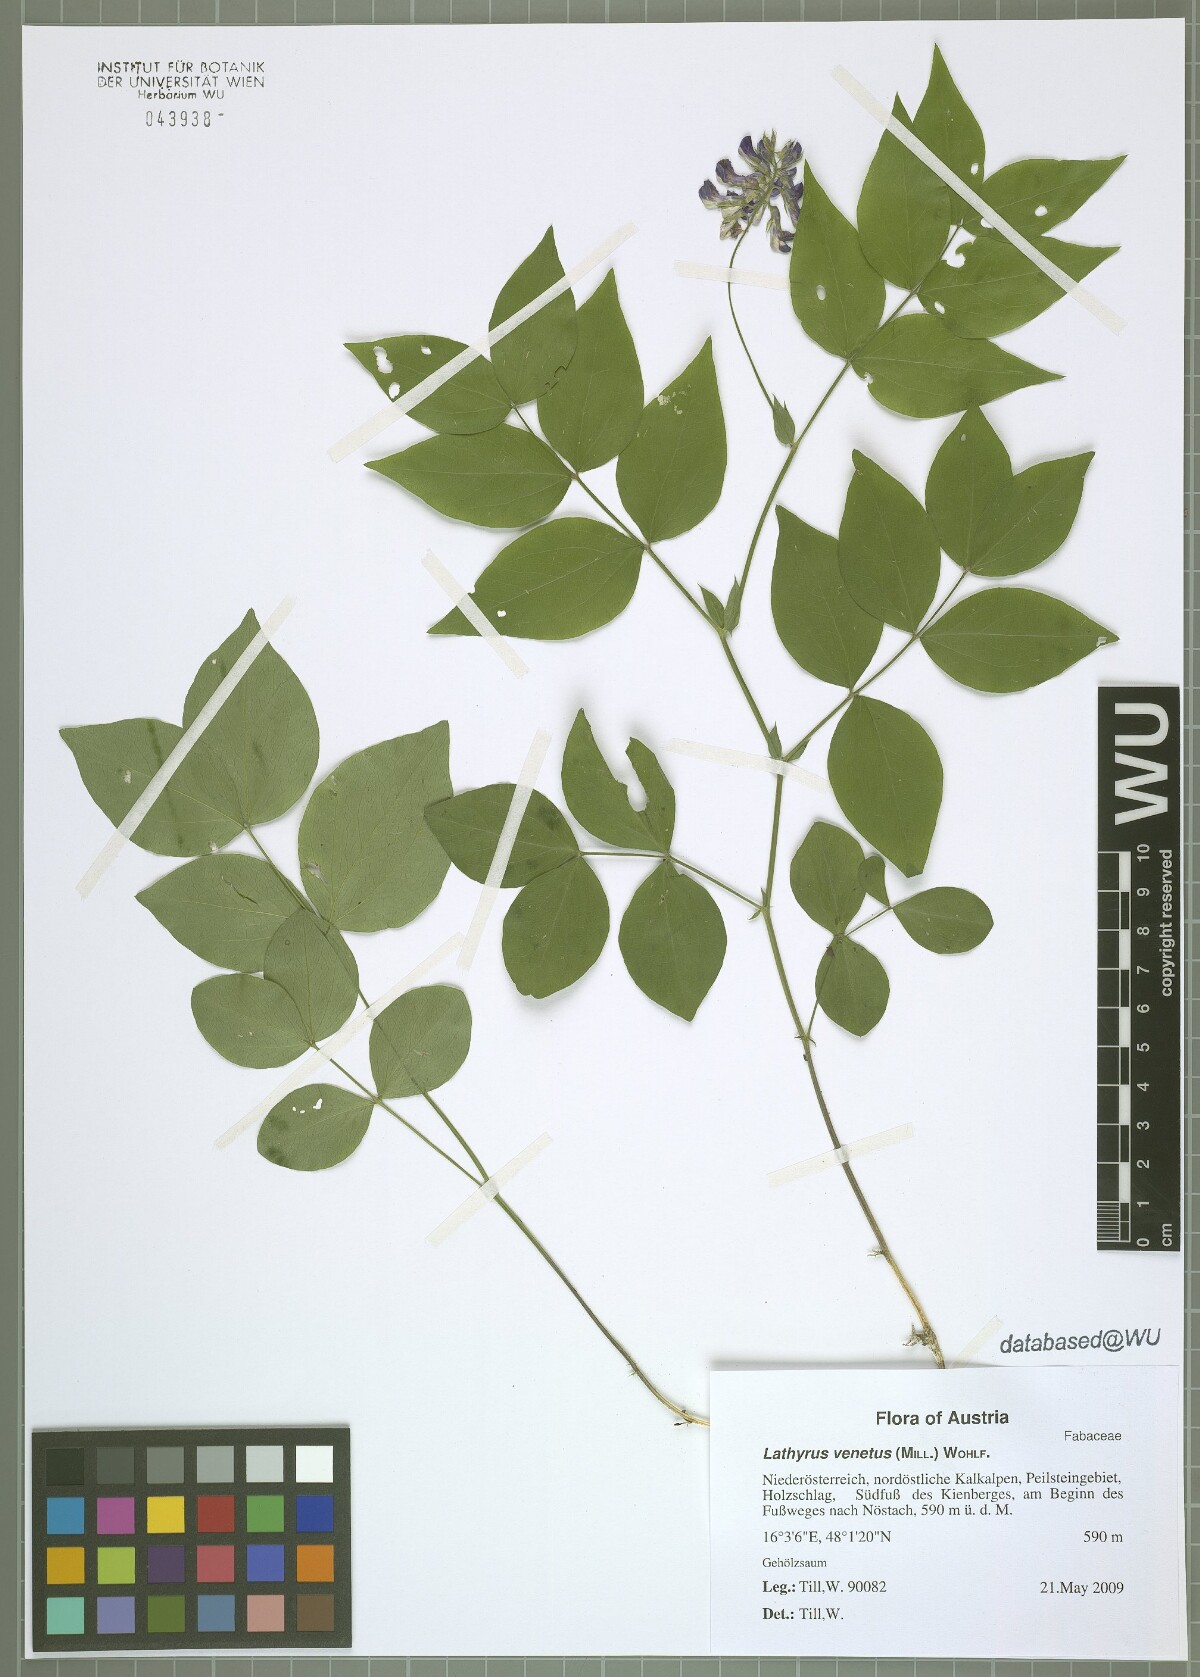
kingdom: Plantae
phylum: Tracheophyta
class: Magnoliopsida
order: Fabales
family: Fabaceae
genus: Lathyrus
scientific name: Lathyrus venetus
